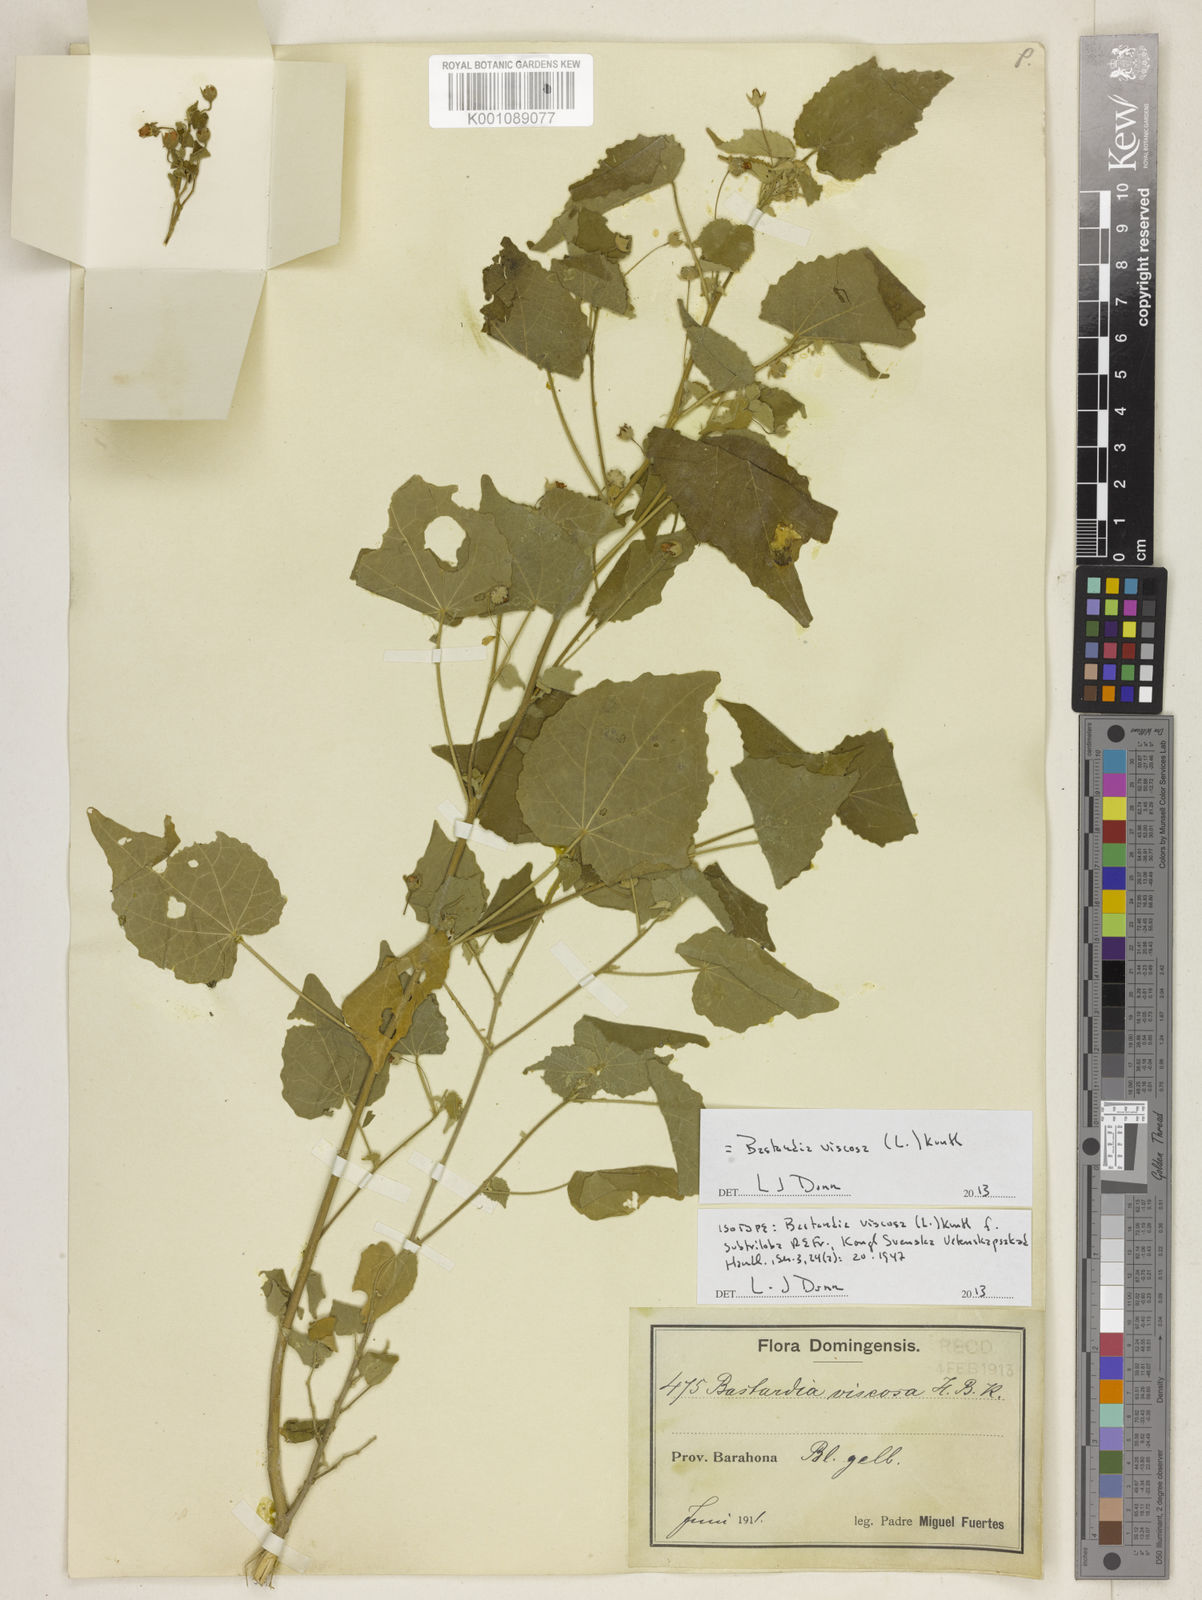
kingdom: Plantae
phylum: Tracheophyta
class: Magnoliopsida
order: Malvales
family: Malvaceae
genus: Abutilon
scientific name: Abutilon viscosum
